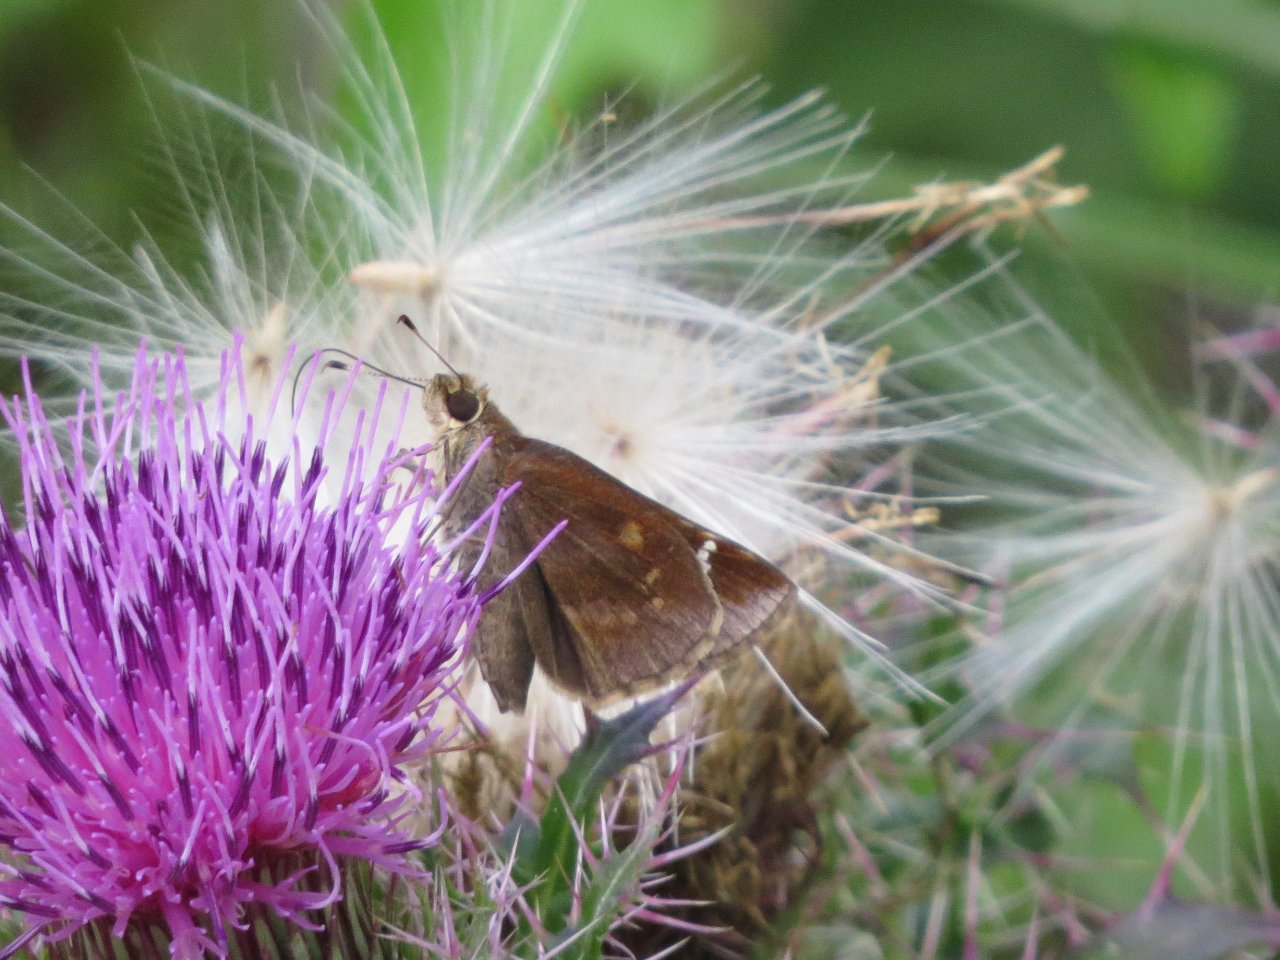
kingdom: Animalia
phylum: Arthropoda
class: Insecta
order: Lepidoptera
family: Hesperiidae
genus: Lerema
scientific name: Lerema accius
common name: Clouded Skipper
